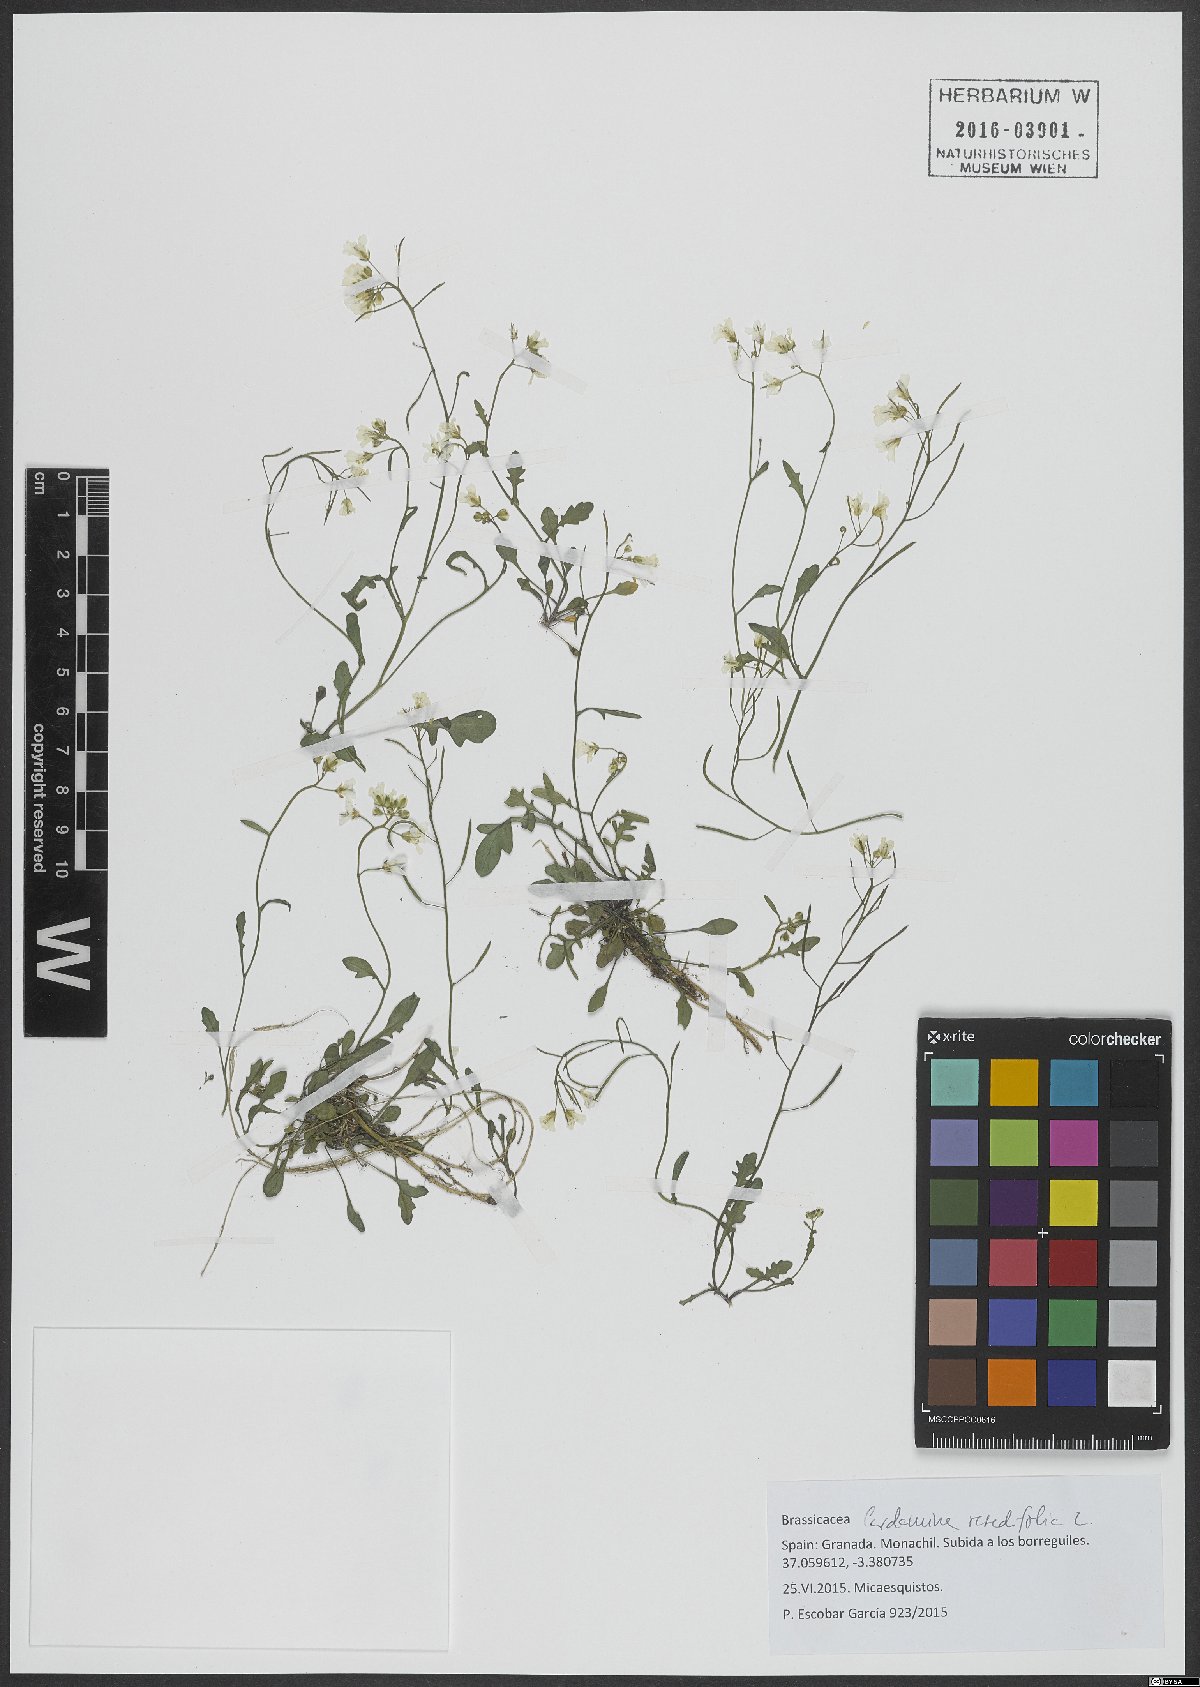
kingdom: Plantae
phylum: Tracheophyta
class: Magnoliopsida
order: Brassicales
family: Brassicaceae
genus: Cardamine
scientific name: Cardamine resedifolia
